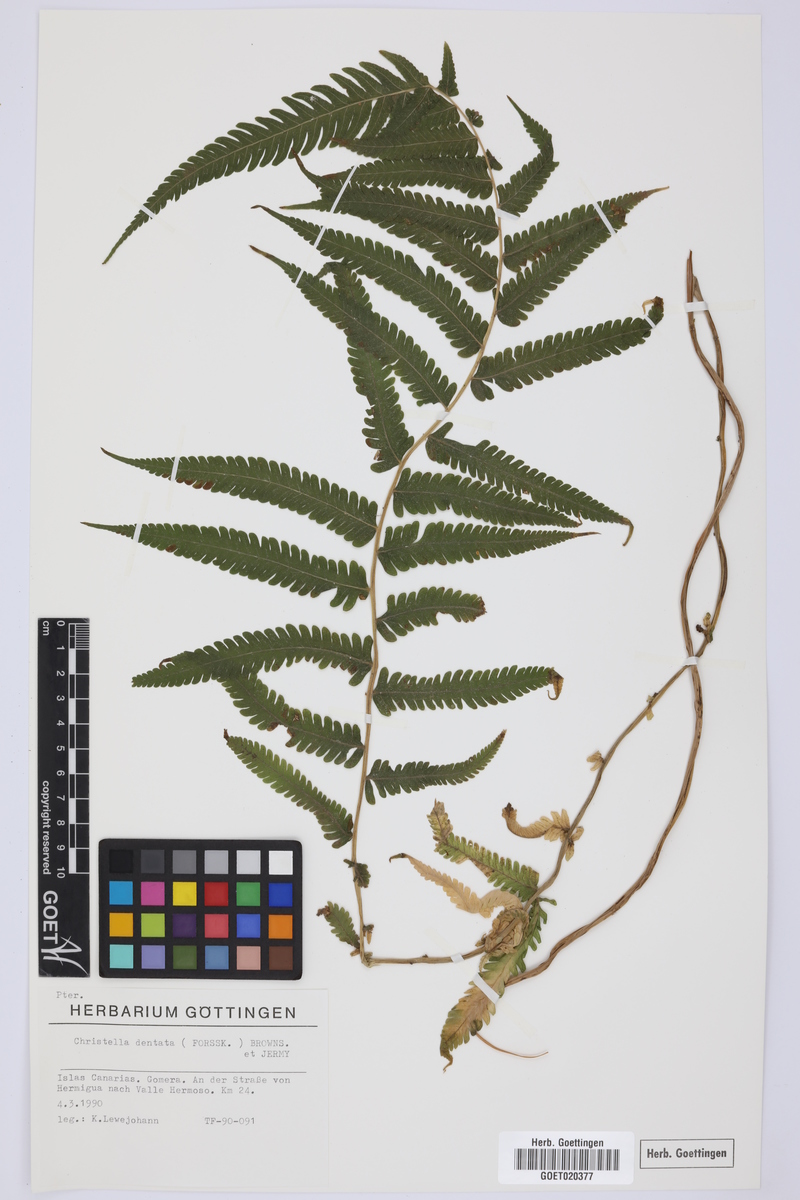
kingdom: Plantae
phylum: Tracheophyta
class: Polypodiopsida
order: Polypodiales
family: Thelypteridaceae
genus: Christella
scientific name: Christella dentata
